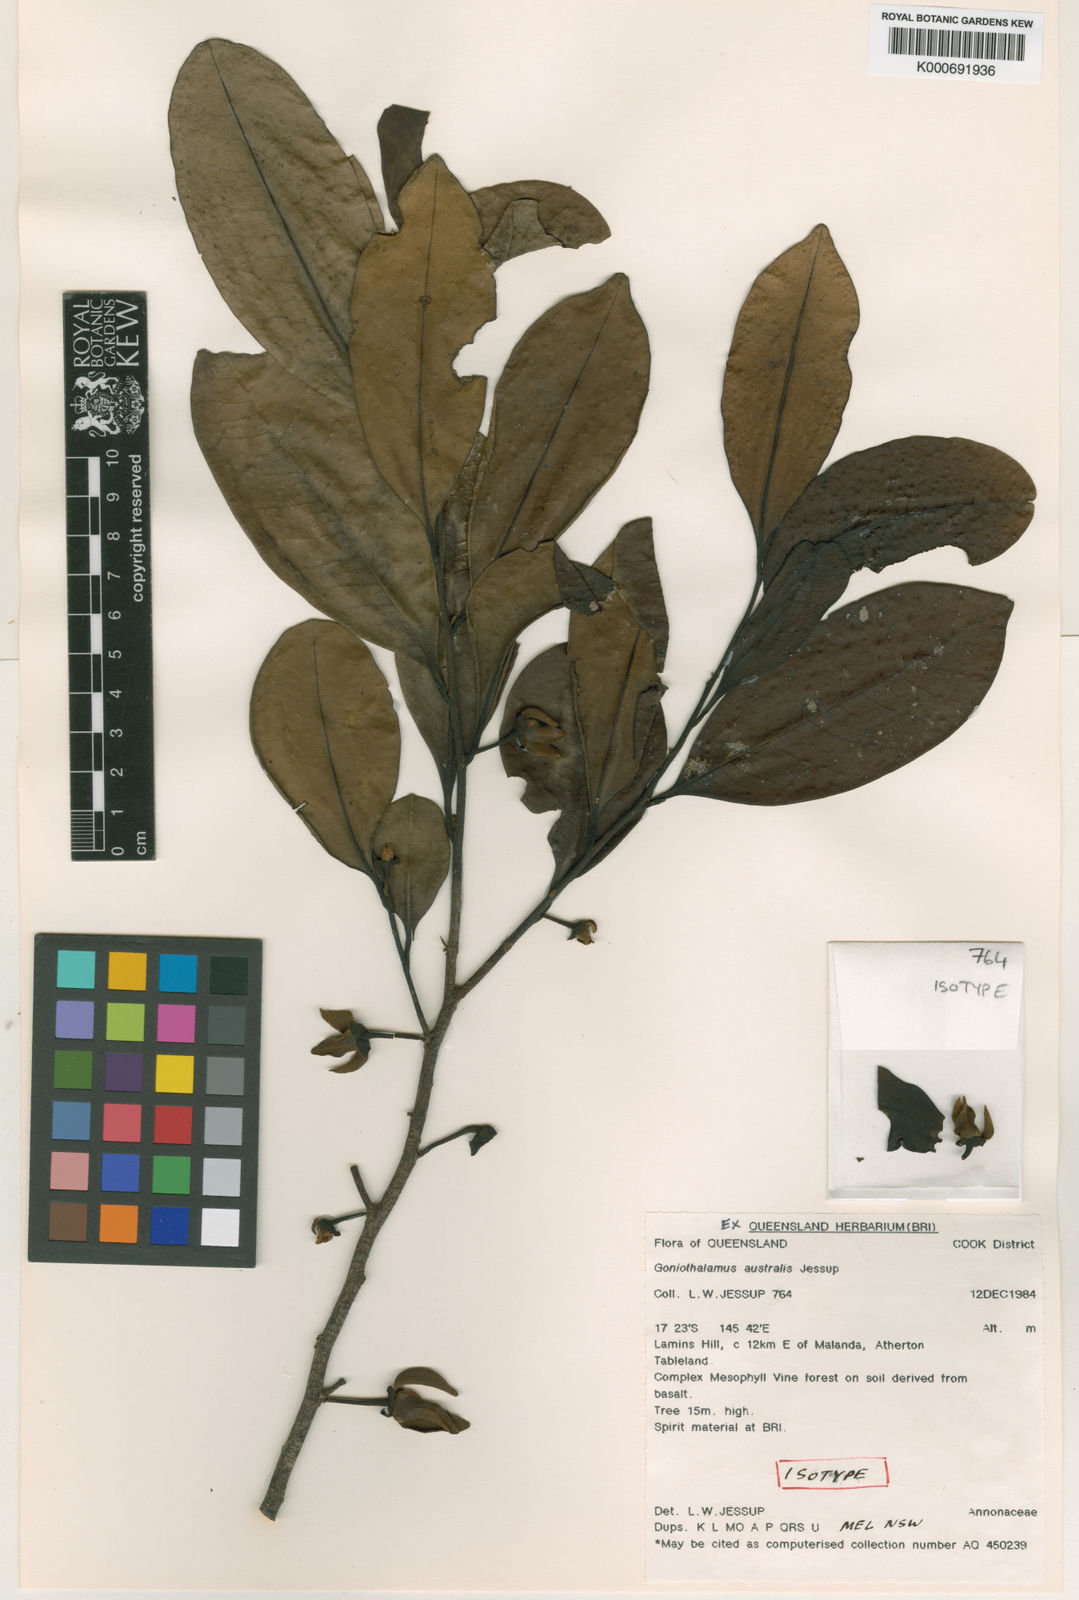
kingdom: Plantae
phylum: Tracheophyta
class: Magnoliopsida
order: Magnoliales
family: Annonaceae
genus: Goniothalamus
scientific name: Goniothalamus australis
